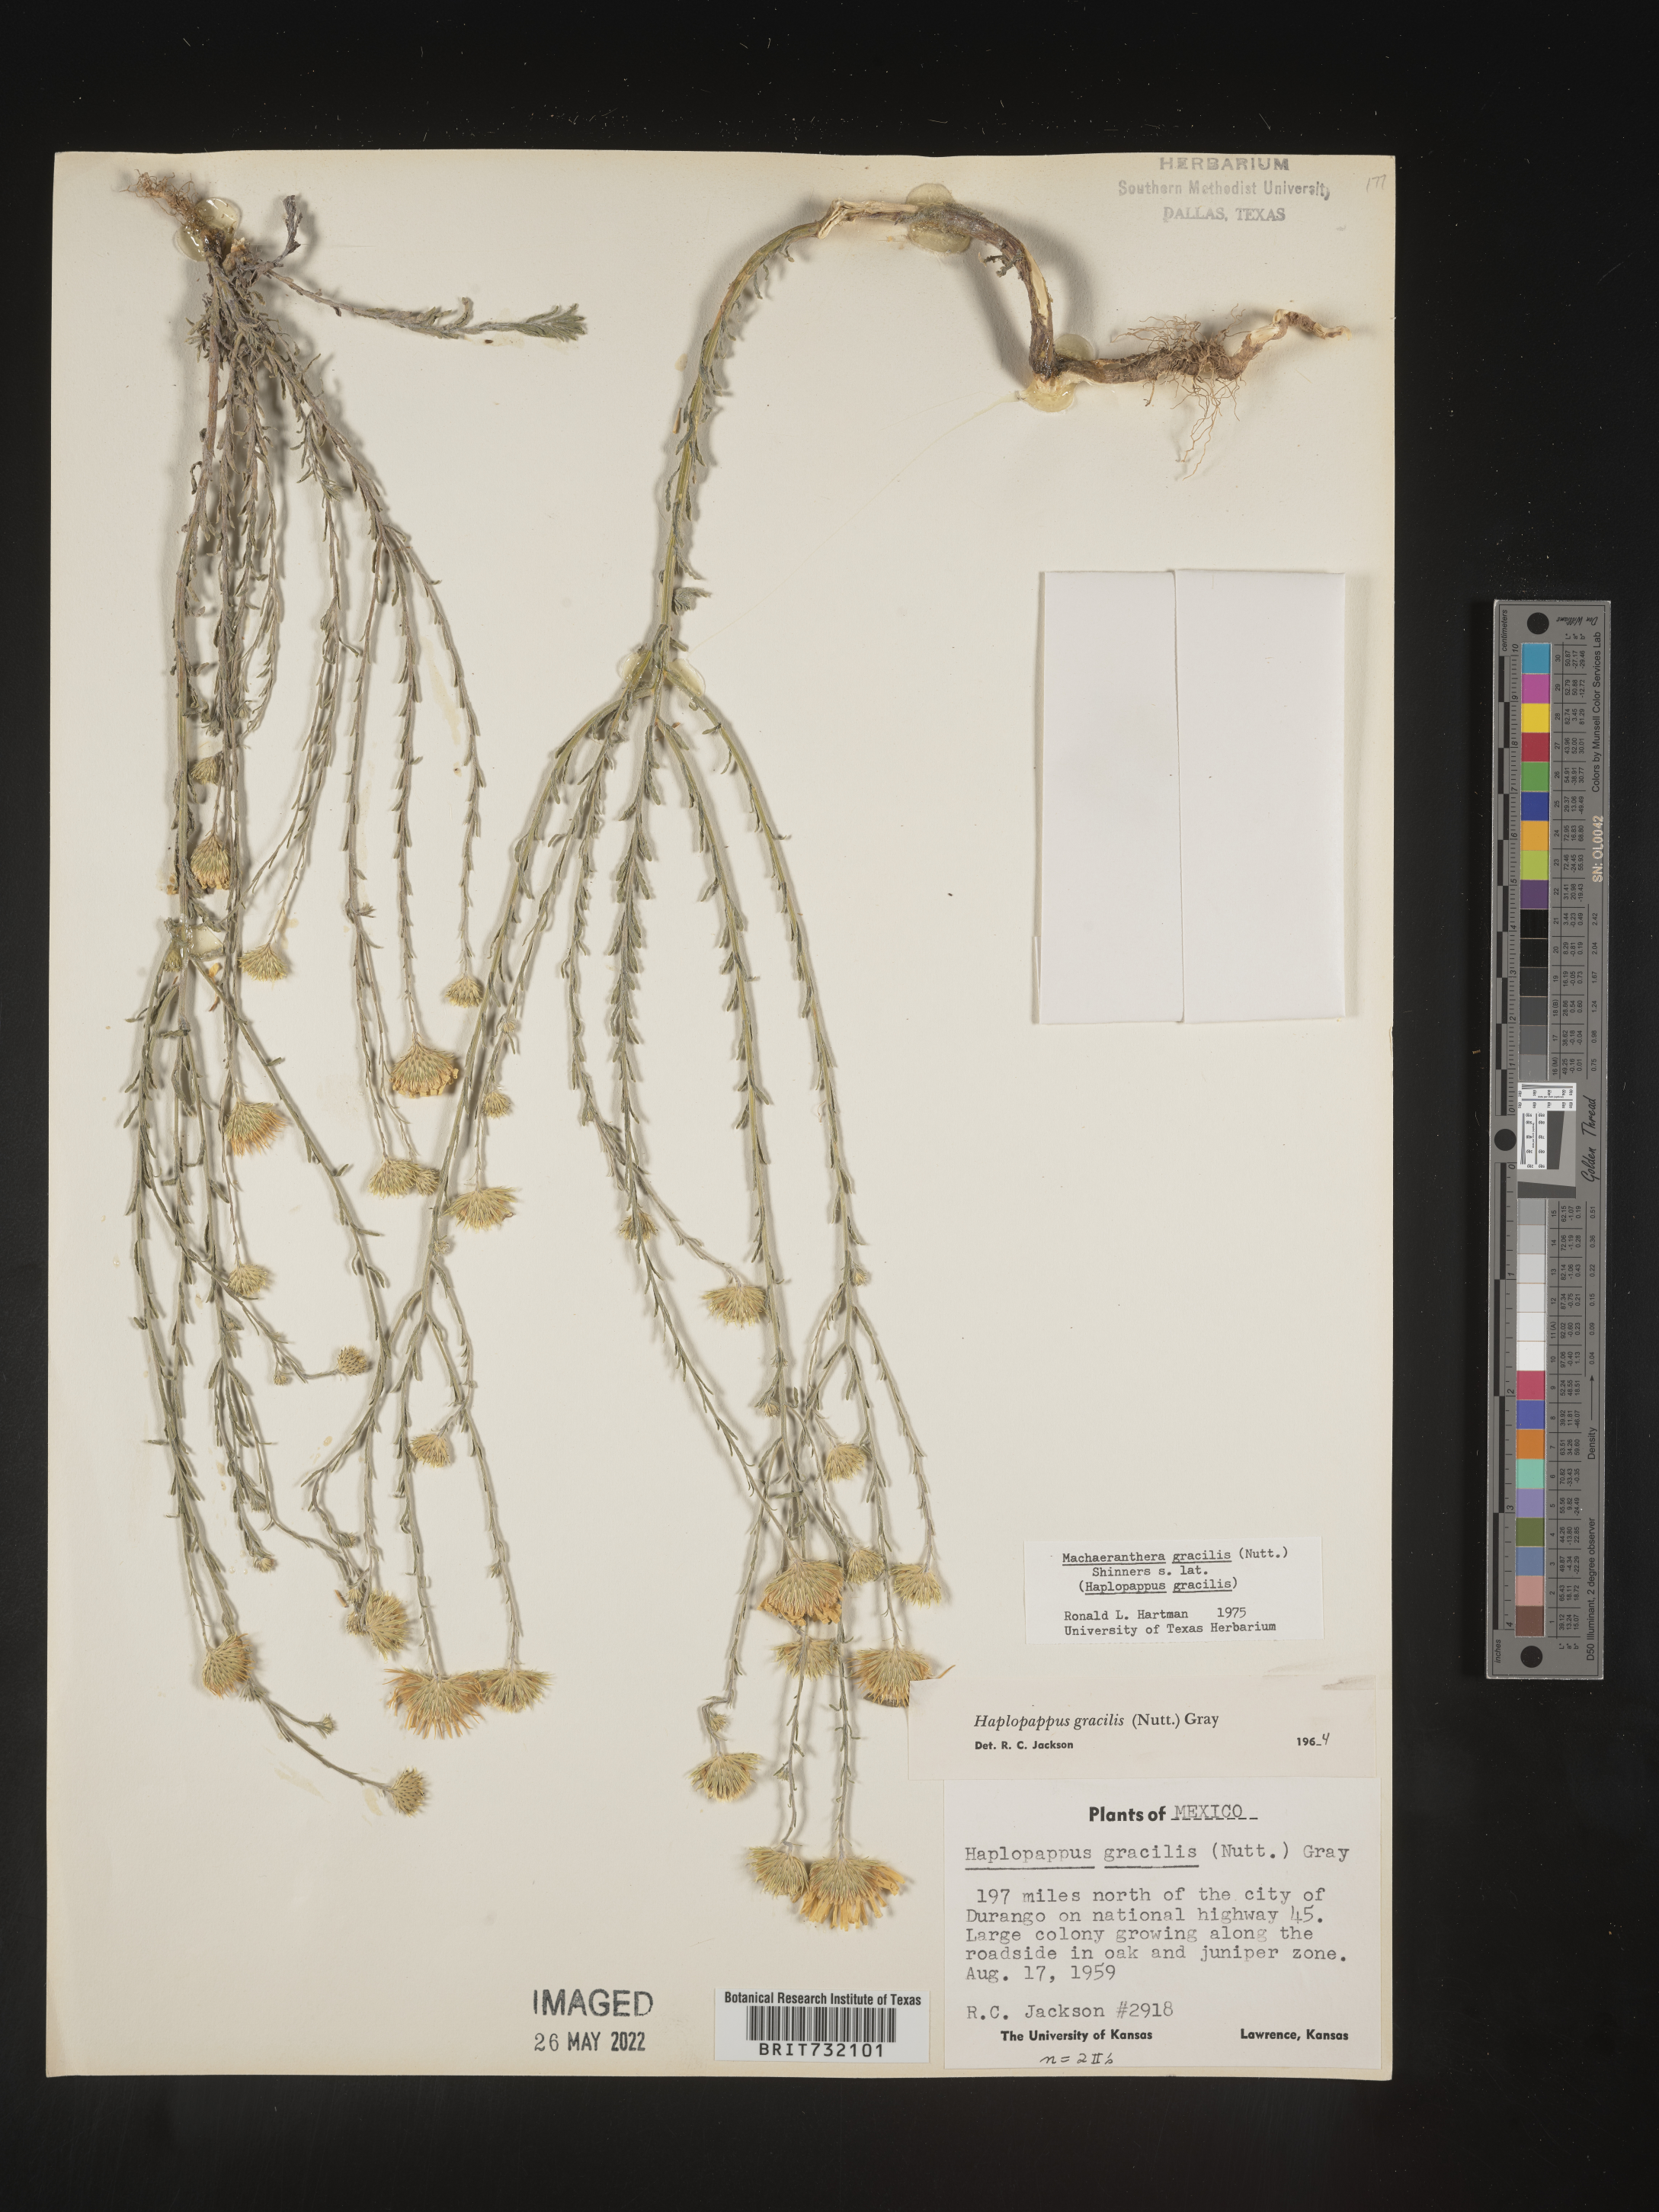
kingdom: Plantae
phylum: Tracheophyta
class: Magnoliopsida
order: Asterales
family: Asteraceae
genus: Xanthisma
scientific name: Xanthisma gracile
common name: Slender goldenweed
